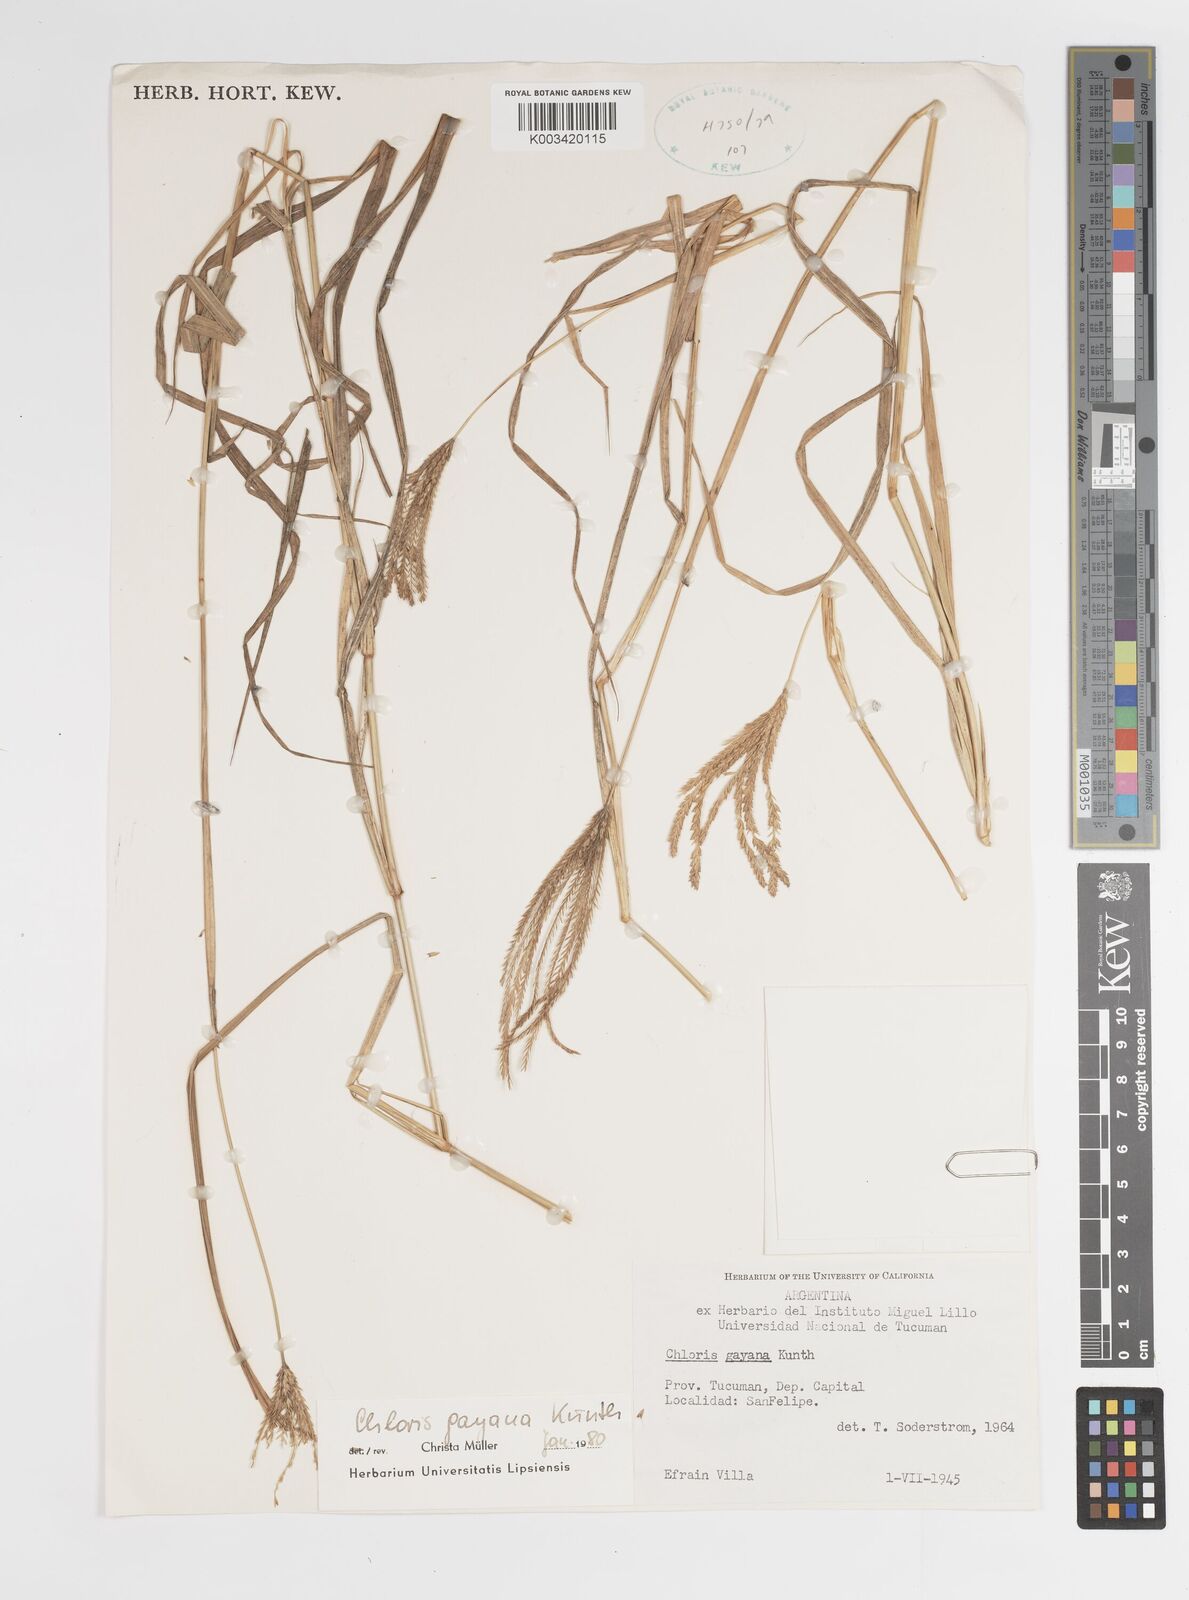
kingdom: Plantae
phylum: Tracheophyta
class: Liliopsida
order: Poales
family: Poaceae
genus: Chloris
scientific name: Chloris gayana
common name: Rhodes grass
